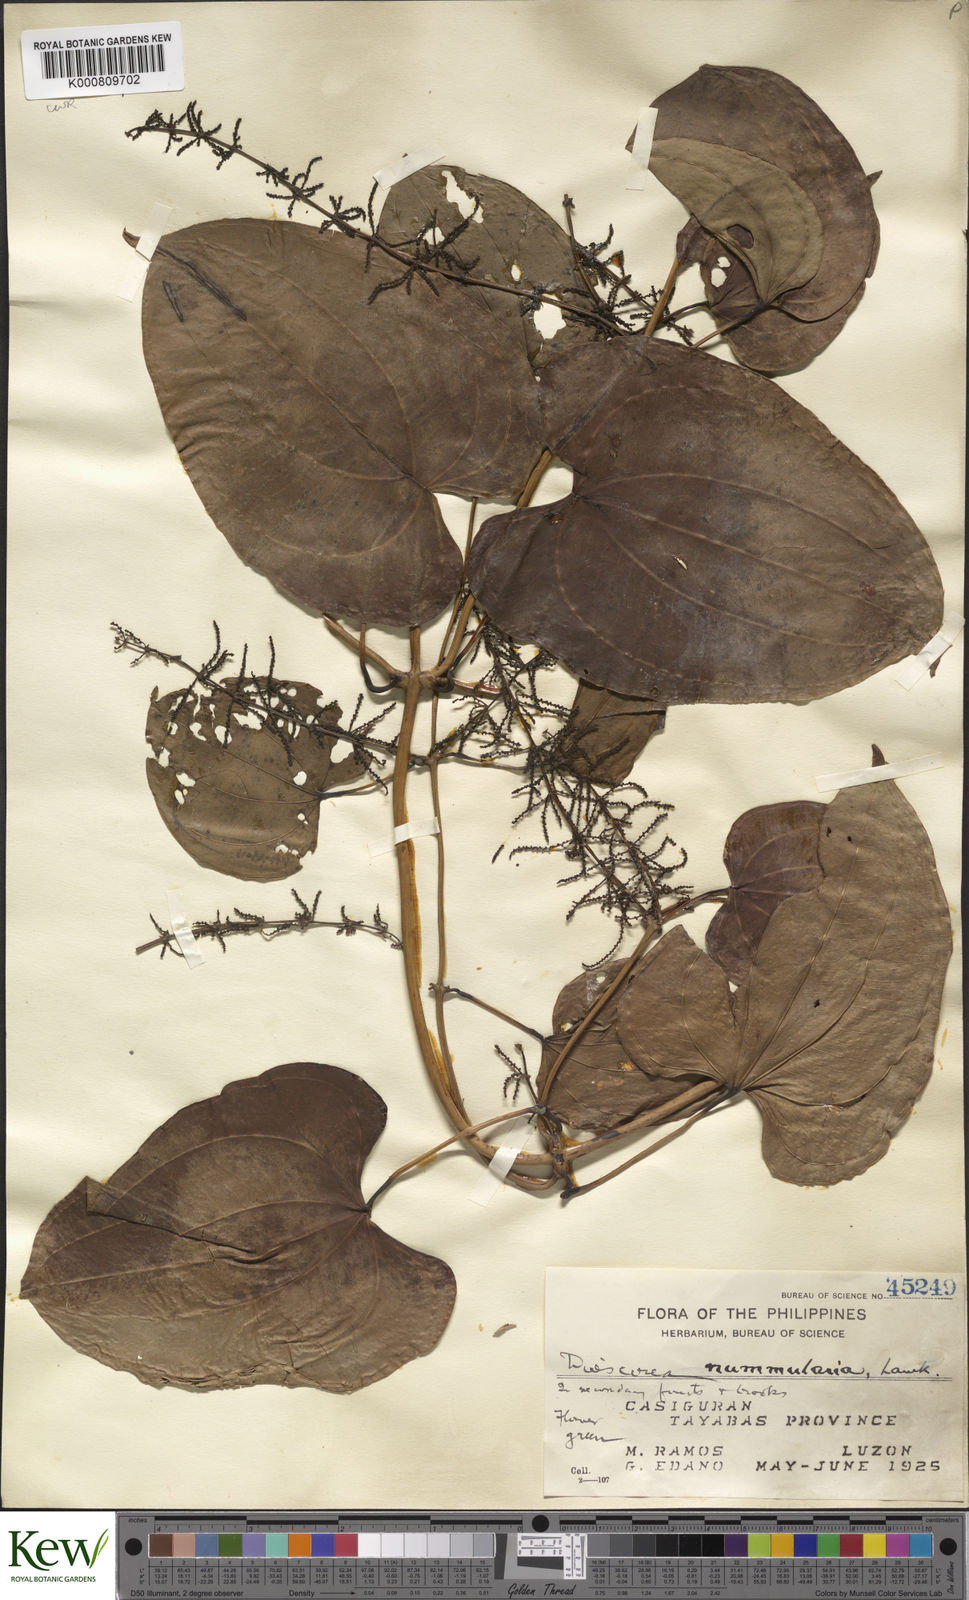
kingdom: Plantae
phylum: Tracheophyta
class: Liliopsida
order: Dioscoreales
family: Dioscoreaceae
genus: Dioscorea
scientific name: Dioscorea nummularia
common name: Pacific yam
